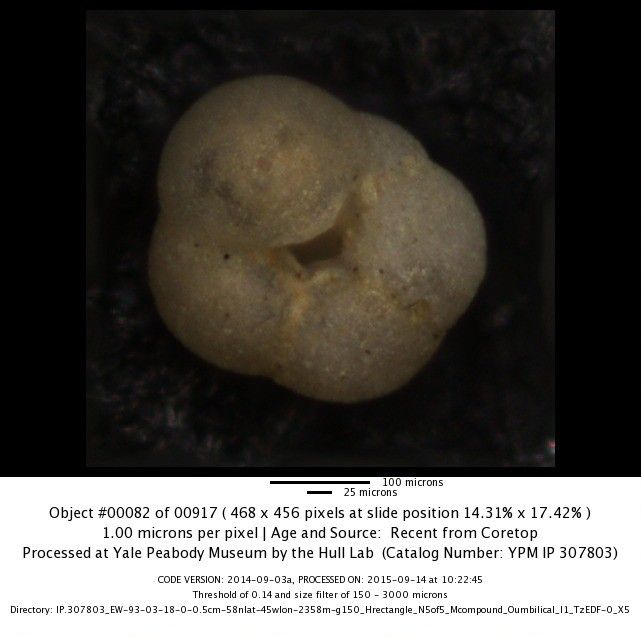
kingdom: Chromista
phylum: Foraminifera
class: Globothalamea
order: Rotaliida
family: Globorotaliidae
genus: Neogloboquadrina
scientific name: Neogloboquadrina pachyderma
